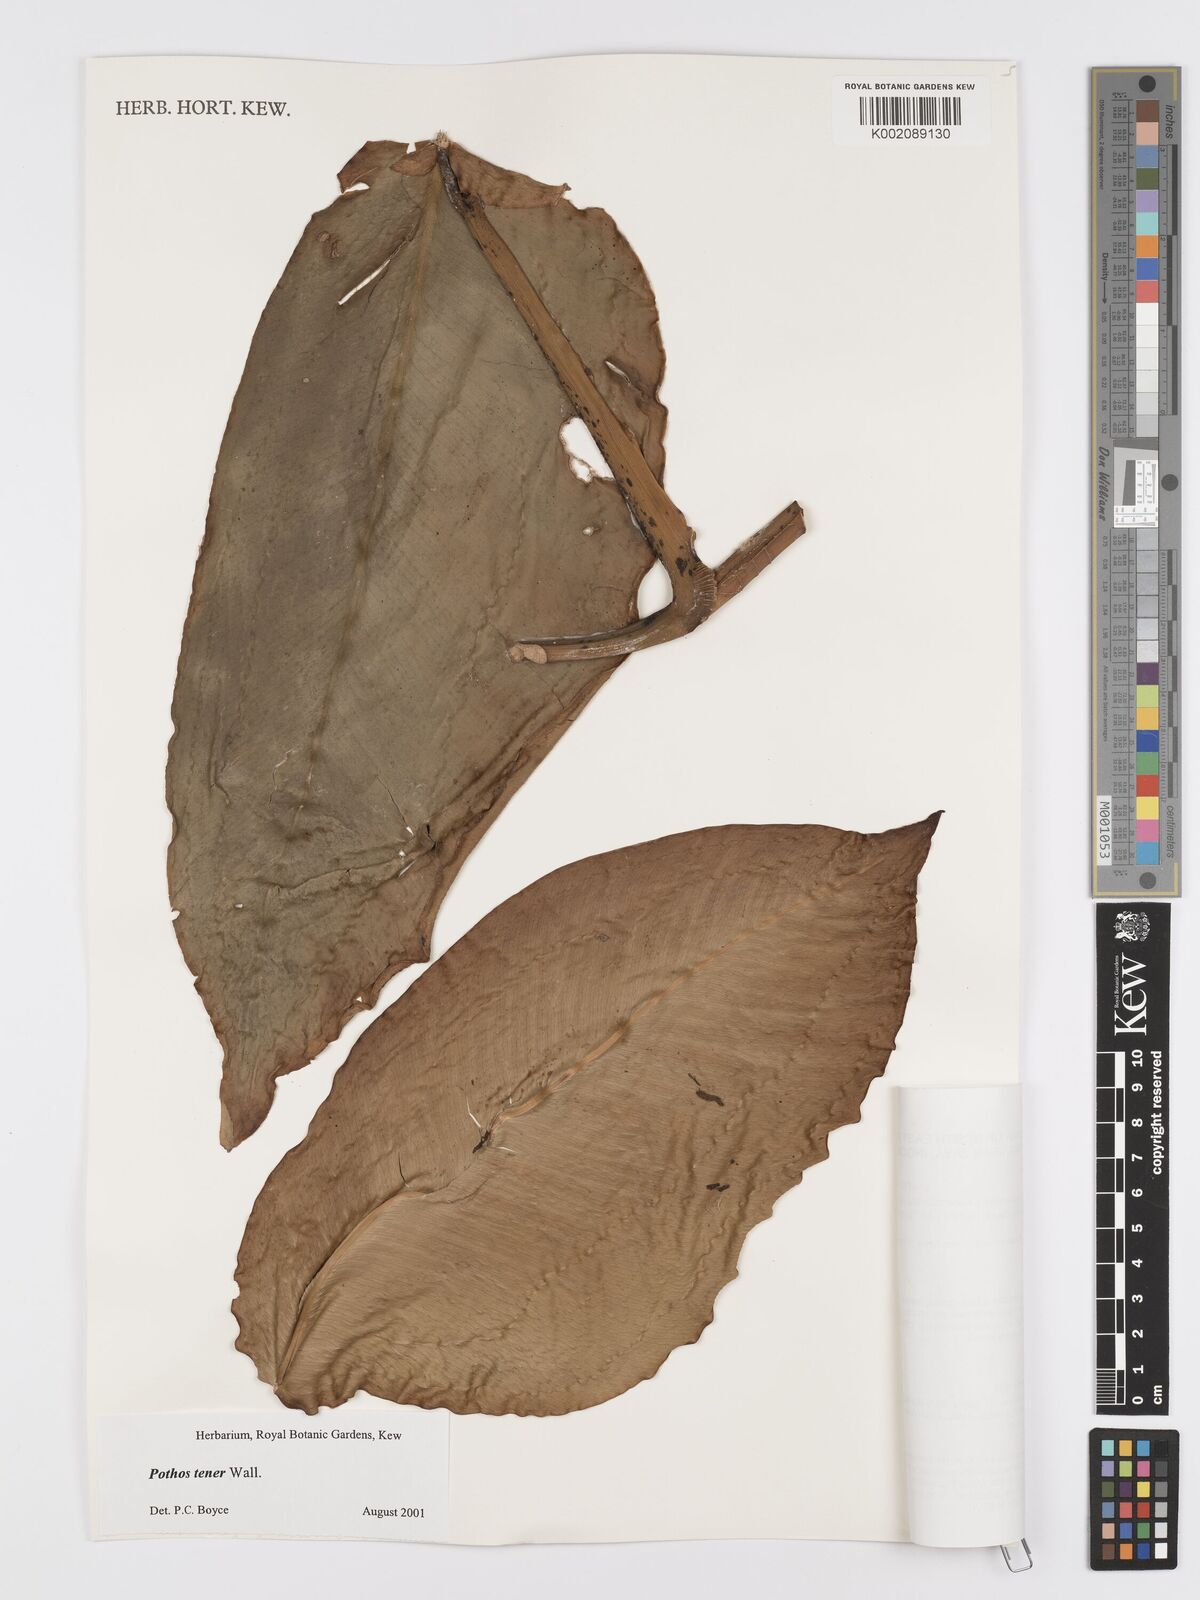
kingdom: Plantae
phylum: Tracheophyta
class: Liliopsida
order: Alismatales
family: Araceae
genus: Pothos
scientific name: Pothos tener
